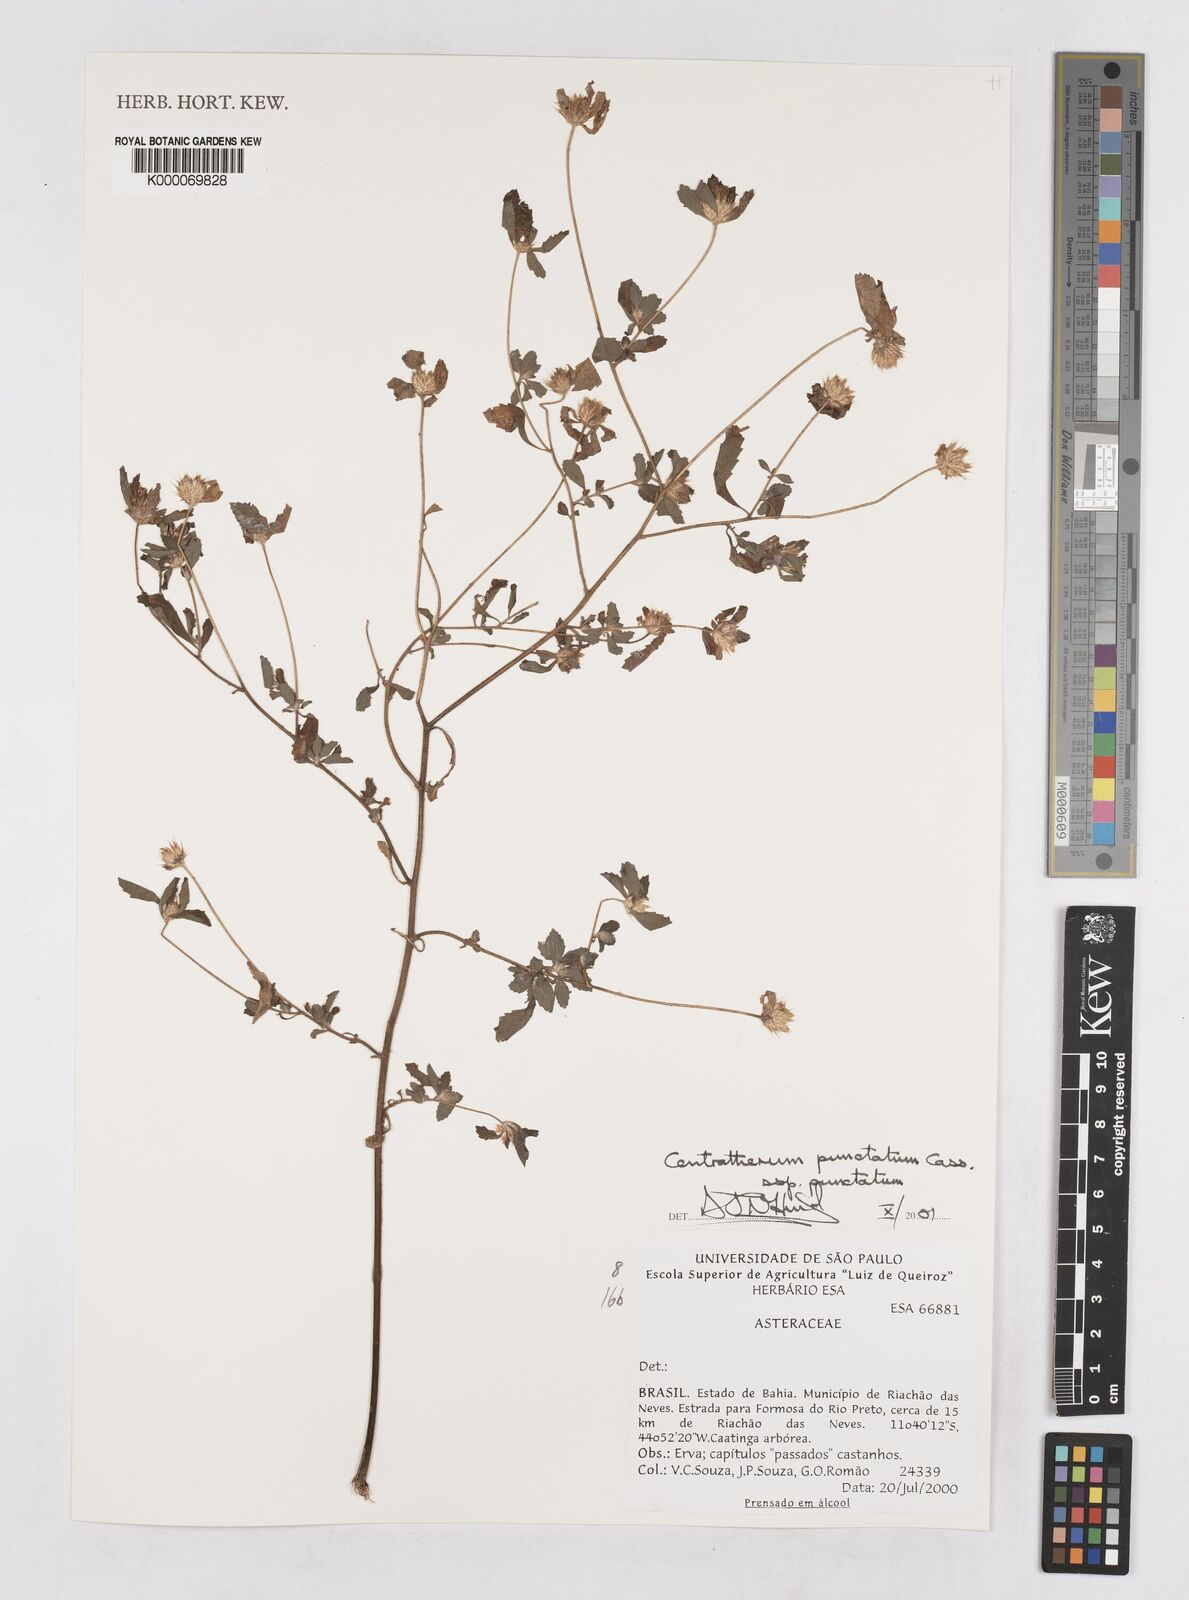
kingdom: Plantae
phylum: Tracheophyta
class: Magnoliopsida
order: Asterales
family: Asteraceae
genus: Centratherum
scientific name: Centratherum punctatum
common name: Larkdaisy
